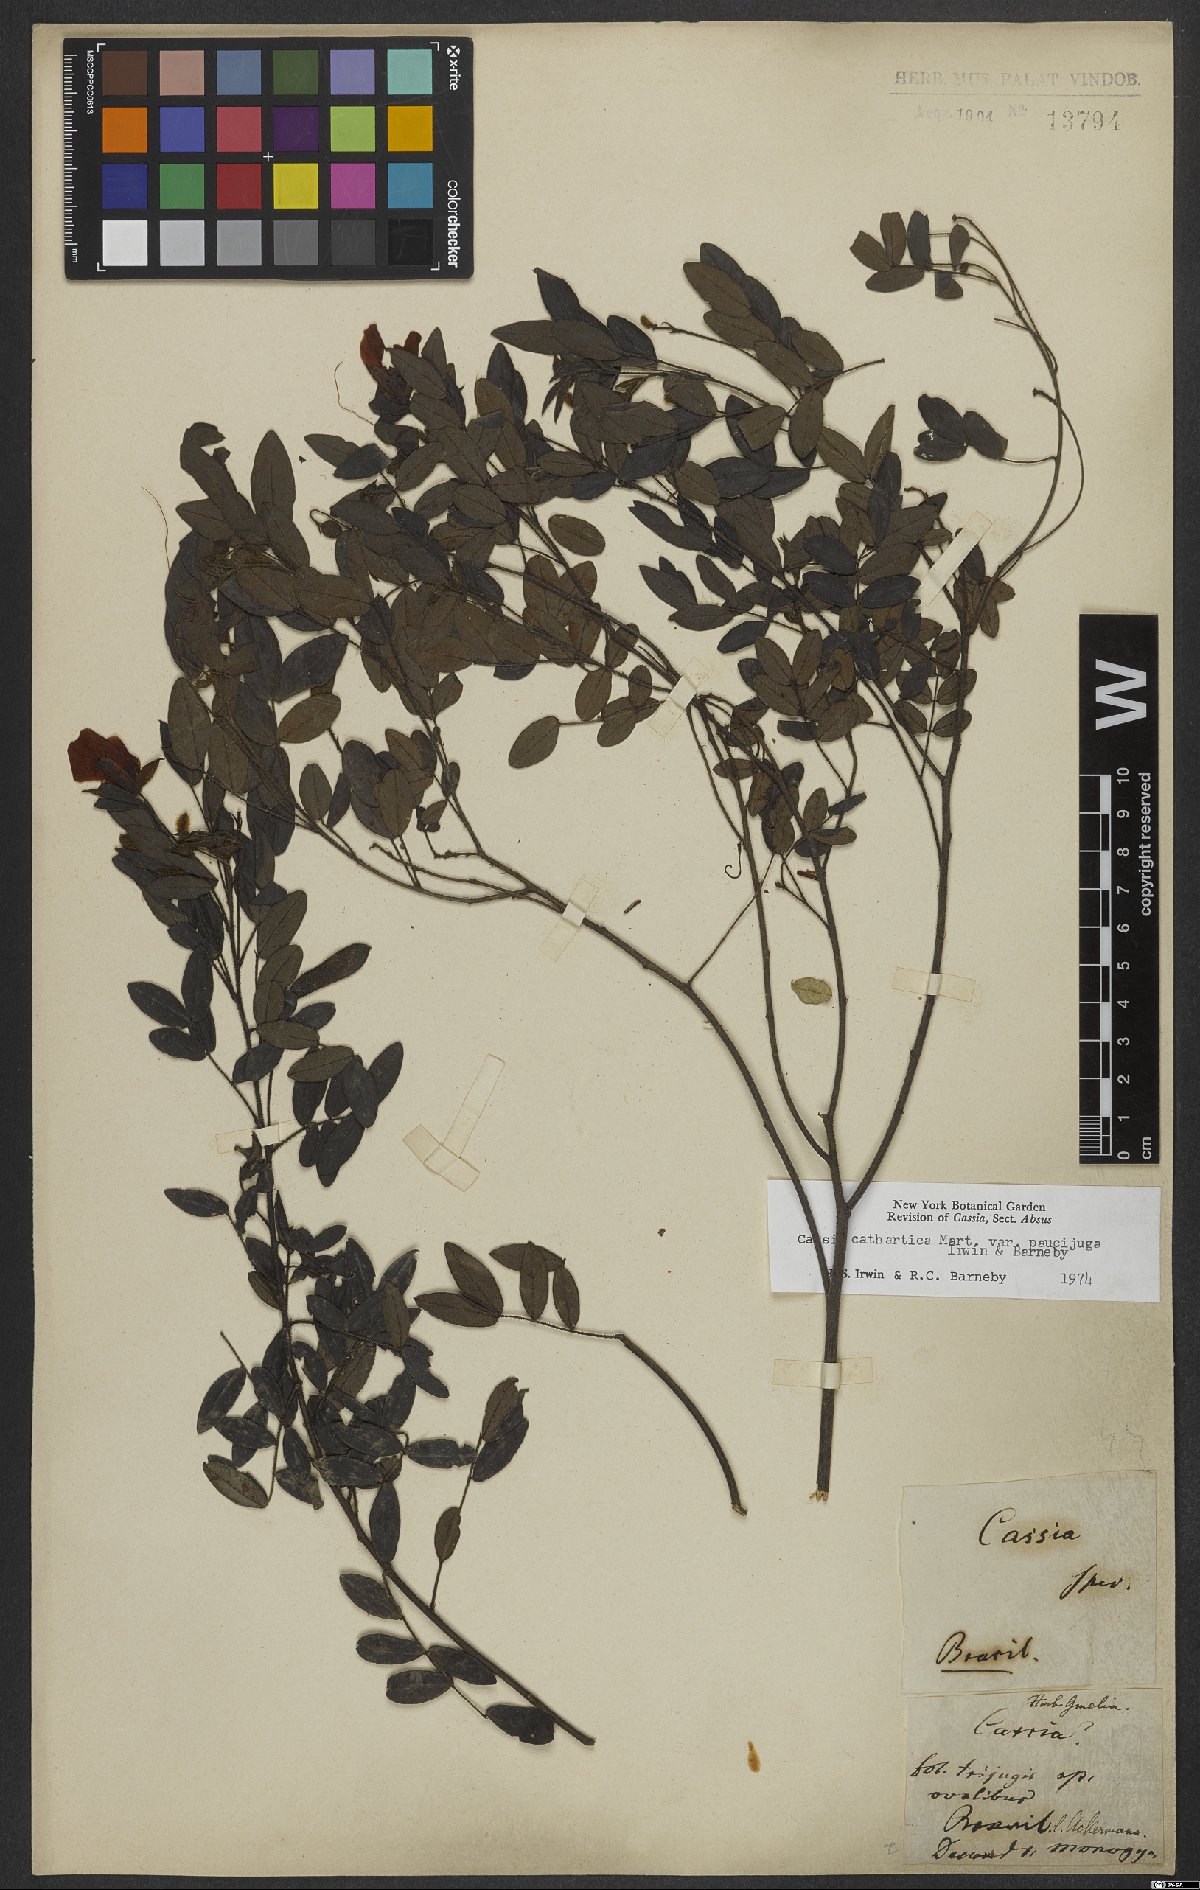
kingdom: Plantae
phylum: Tracheophyta
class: Magnoliopsida
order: Fabales
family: Fabaceae
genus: Chamaecrista
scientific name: Chamaecrista cathartica
